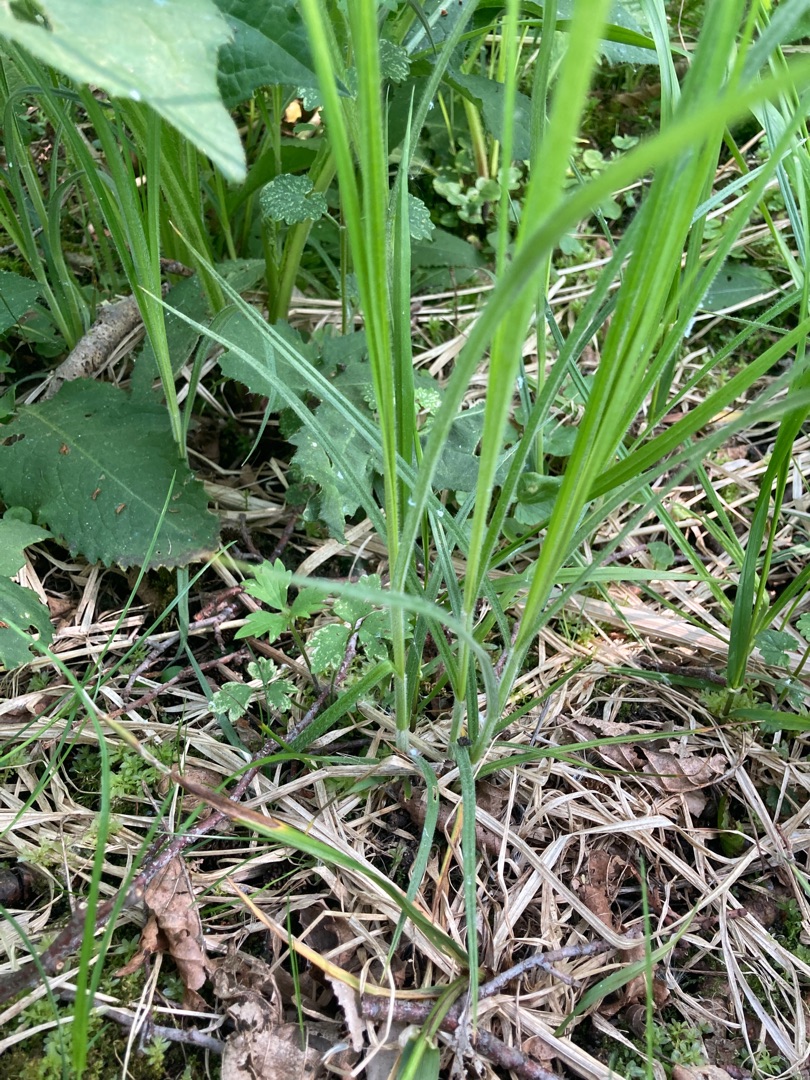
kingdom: Plantae
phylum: Tracheophyta
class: Liliopsida
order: Poales
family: Cyperaceae
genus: Carex
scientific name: Carex hirta
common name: Håret star
